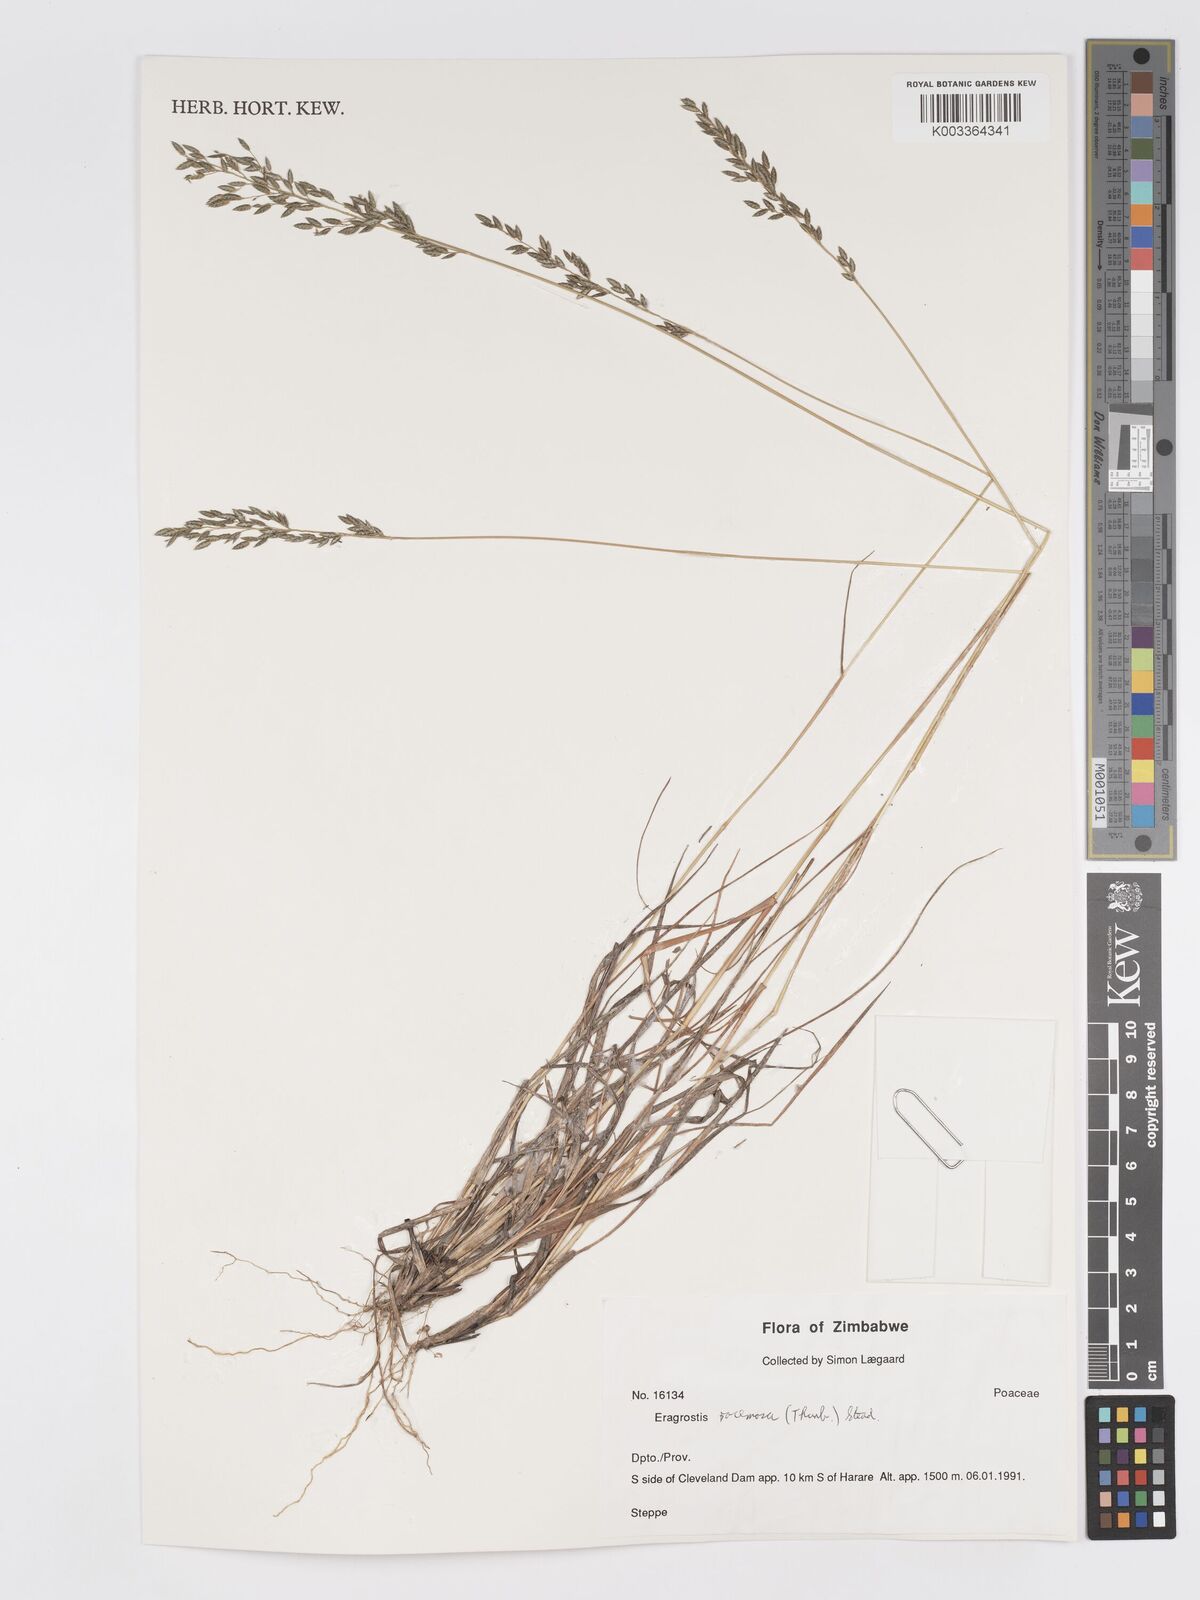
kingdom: Plantae
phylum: Tracheophyta
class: Liliopsida
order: Poales
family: Poaceae
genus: Eragrostis
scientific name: Eragrostis racemosa
